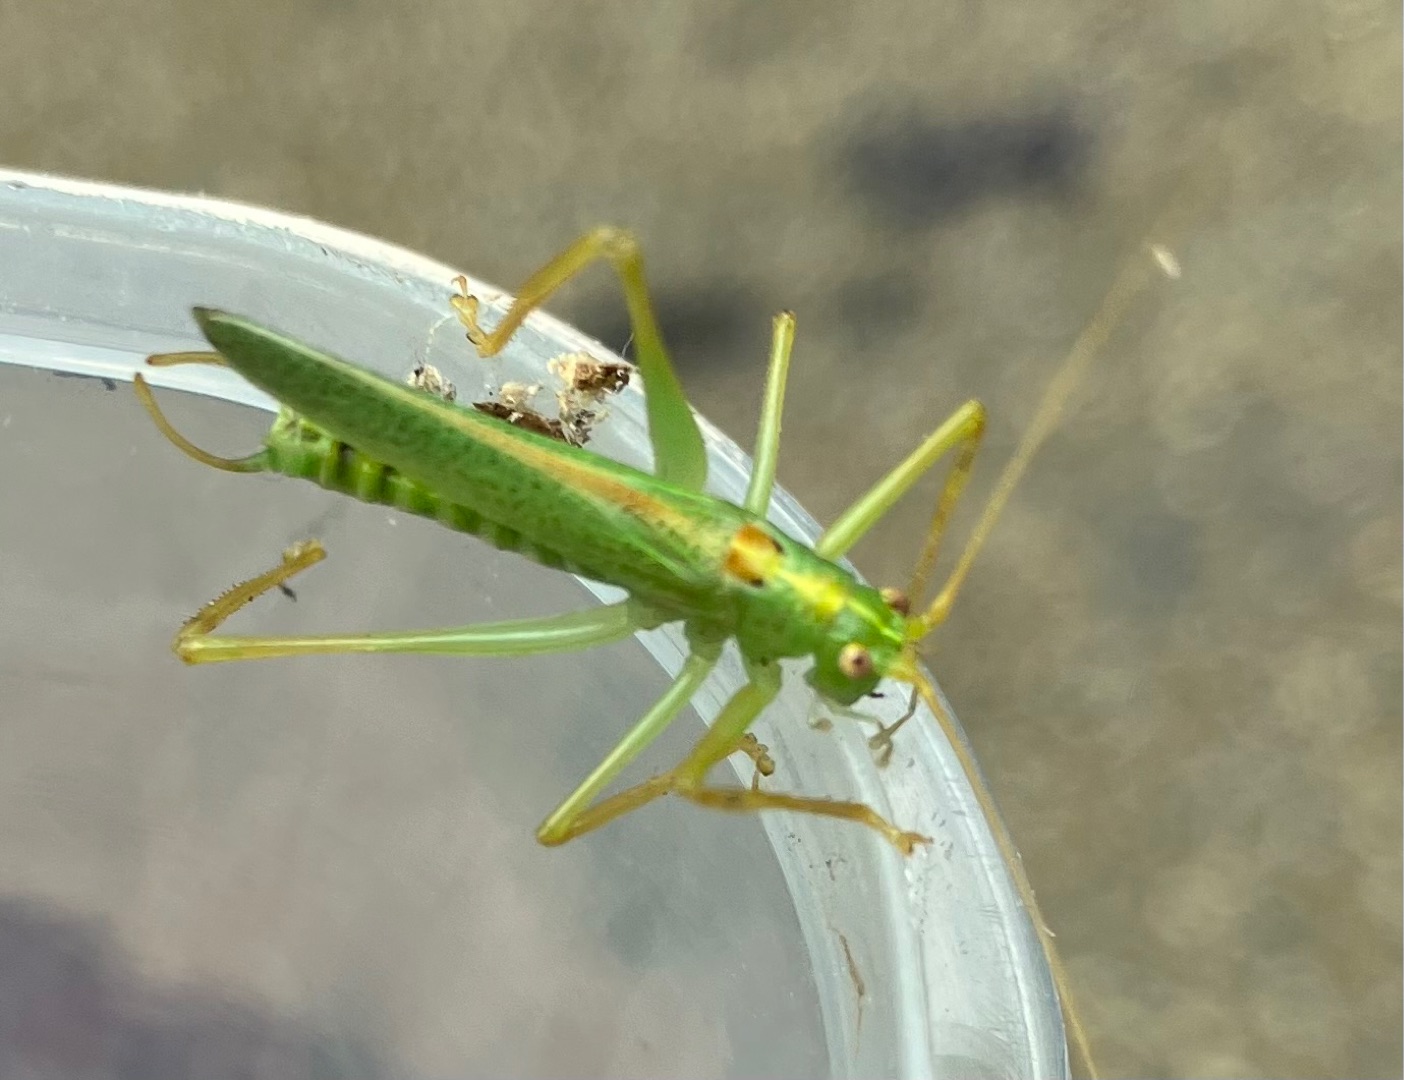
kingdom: Animalia
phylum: Arthropoda
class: Insecta
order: Orthoptera
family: Tettigoniidae
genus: Meconema
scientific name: Meconema thalassinum
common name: Egegræshoppe
